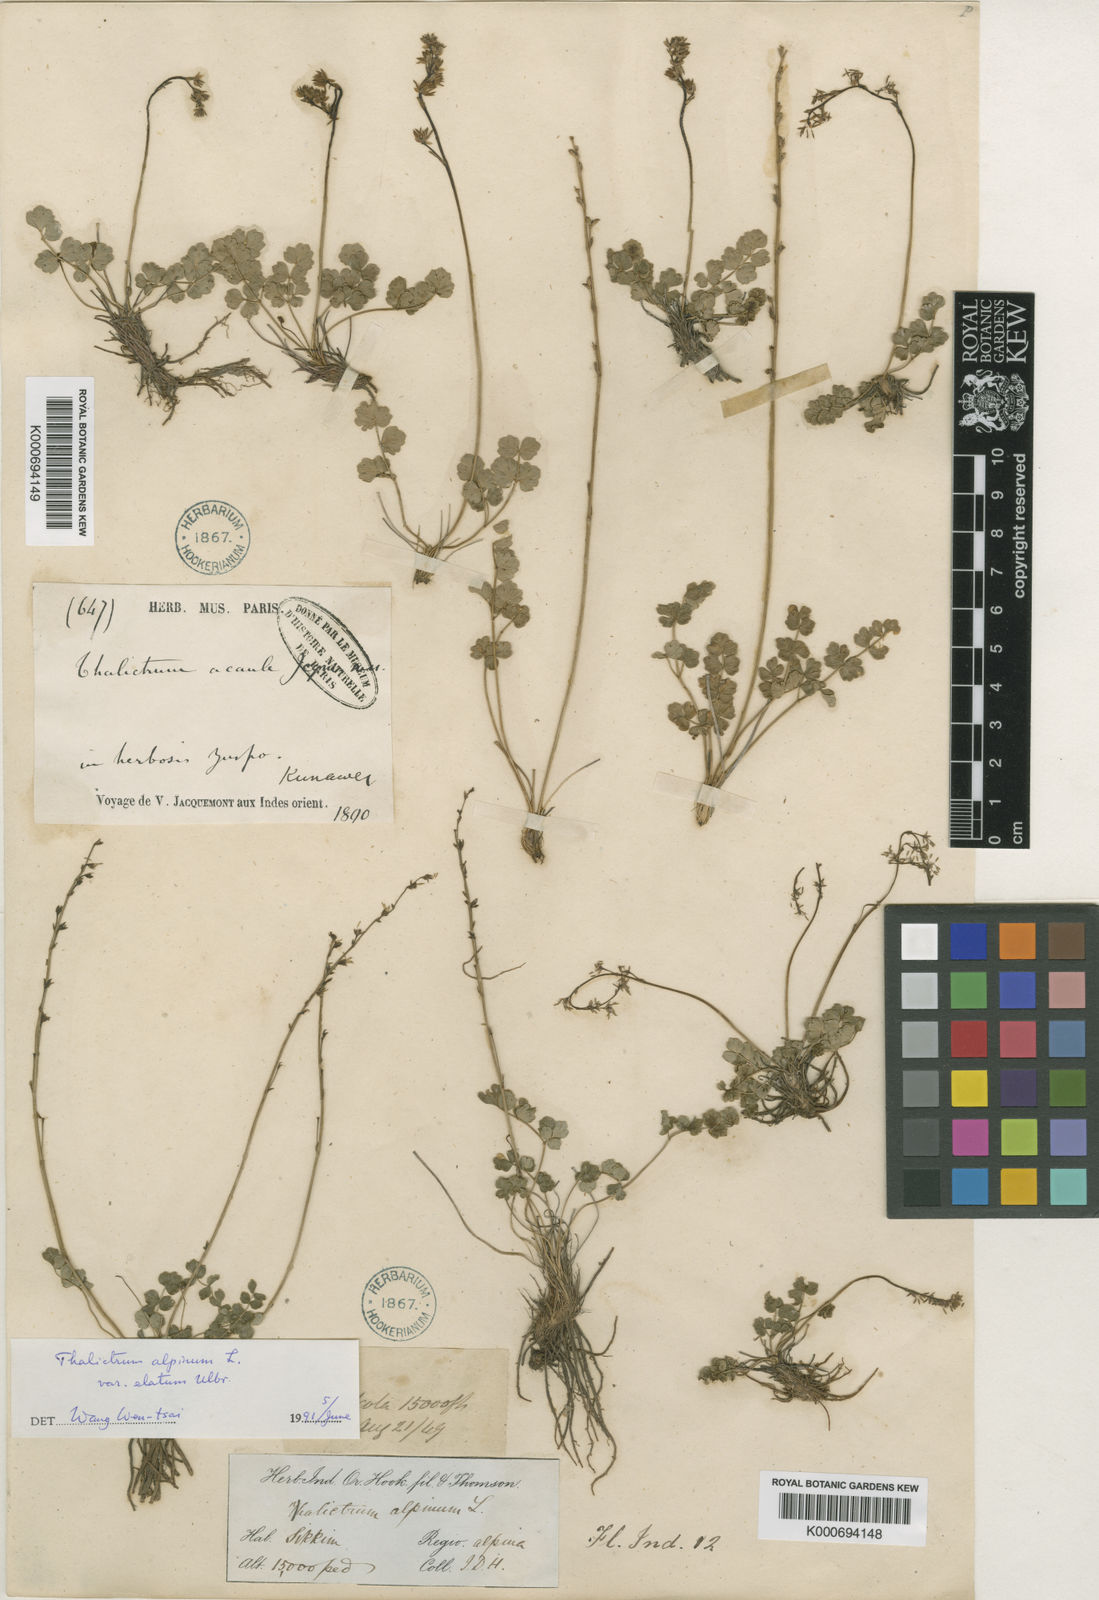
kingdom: Plantae
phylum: Tracheophyta
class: Magnoliopsida
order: Ranunculales
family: Ranunculaceae
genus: Thalictrum
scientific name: Thalictrum alpinum
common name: Alpine meadow-rue
